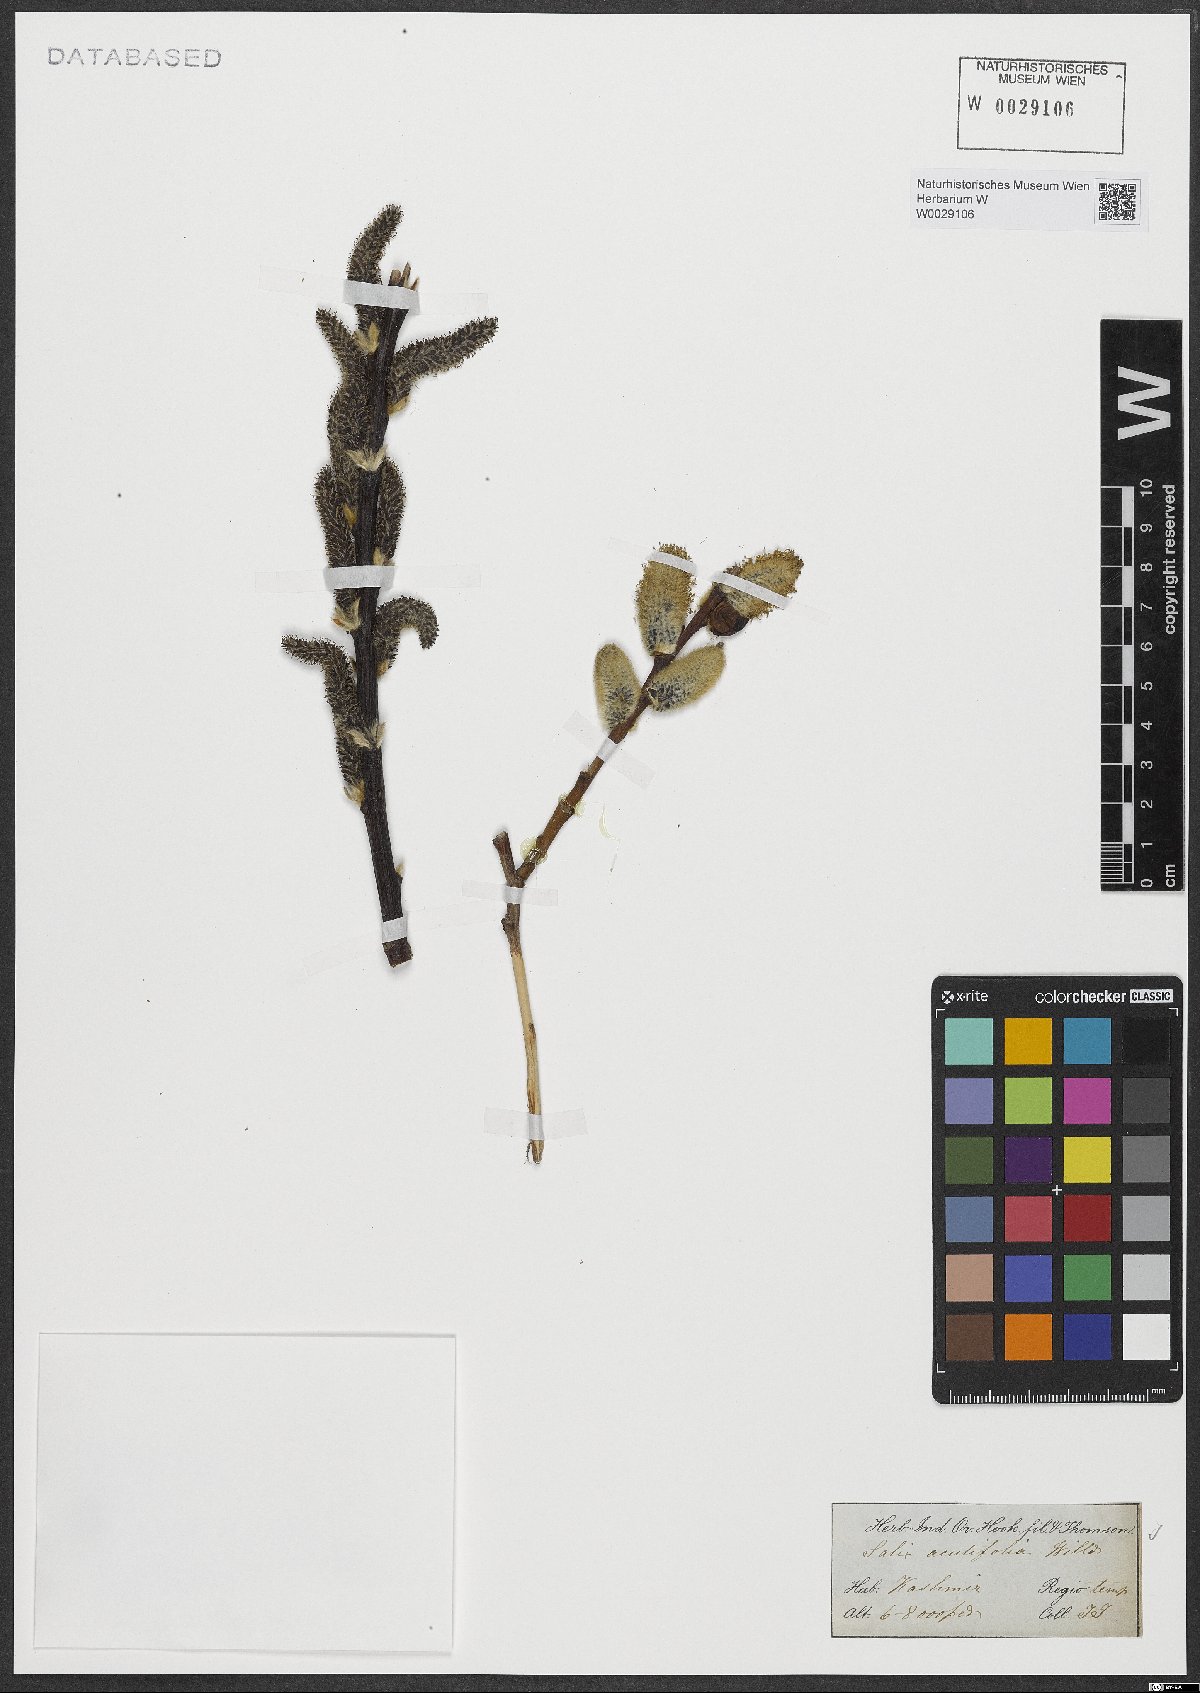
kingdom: Plantae
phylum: Tracheophyta
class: Magnoliopsida
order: Malpighiales
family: Salicaceae
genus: Salix
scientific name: Salix acutifolia
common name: Siberian violet-willow
